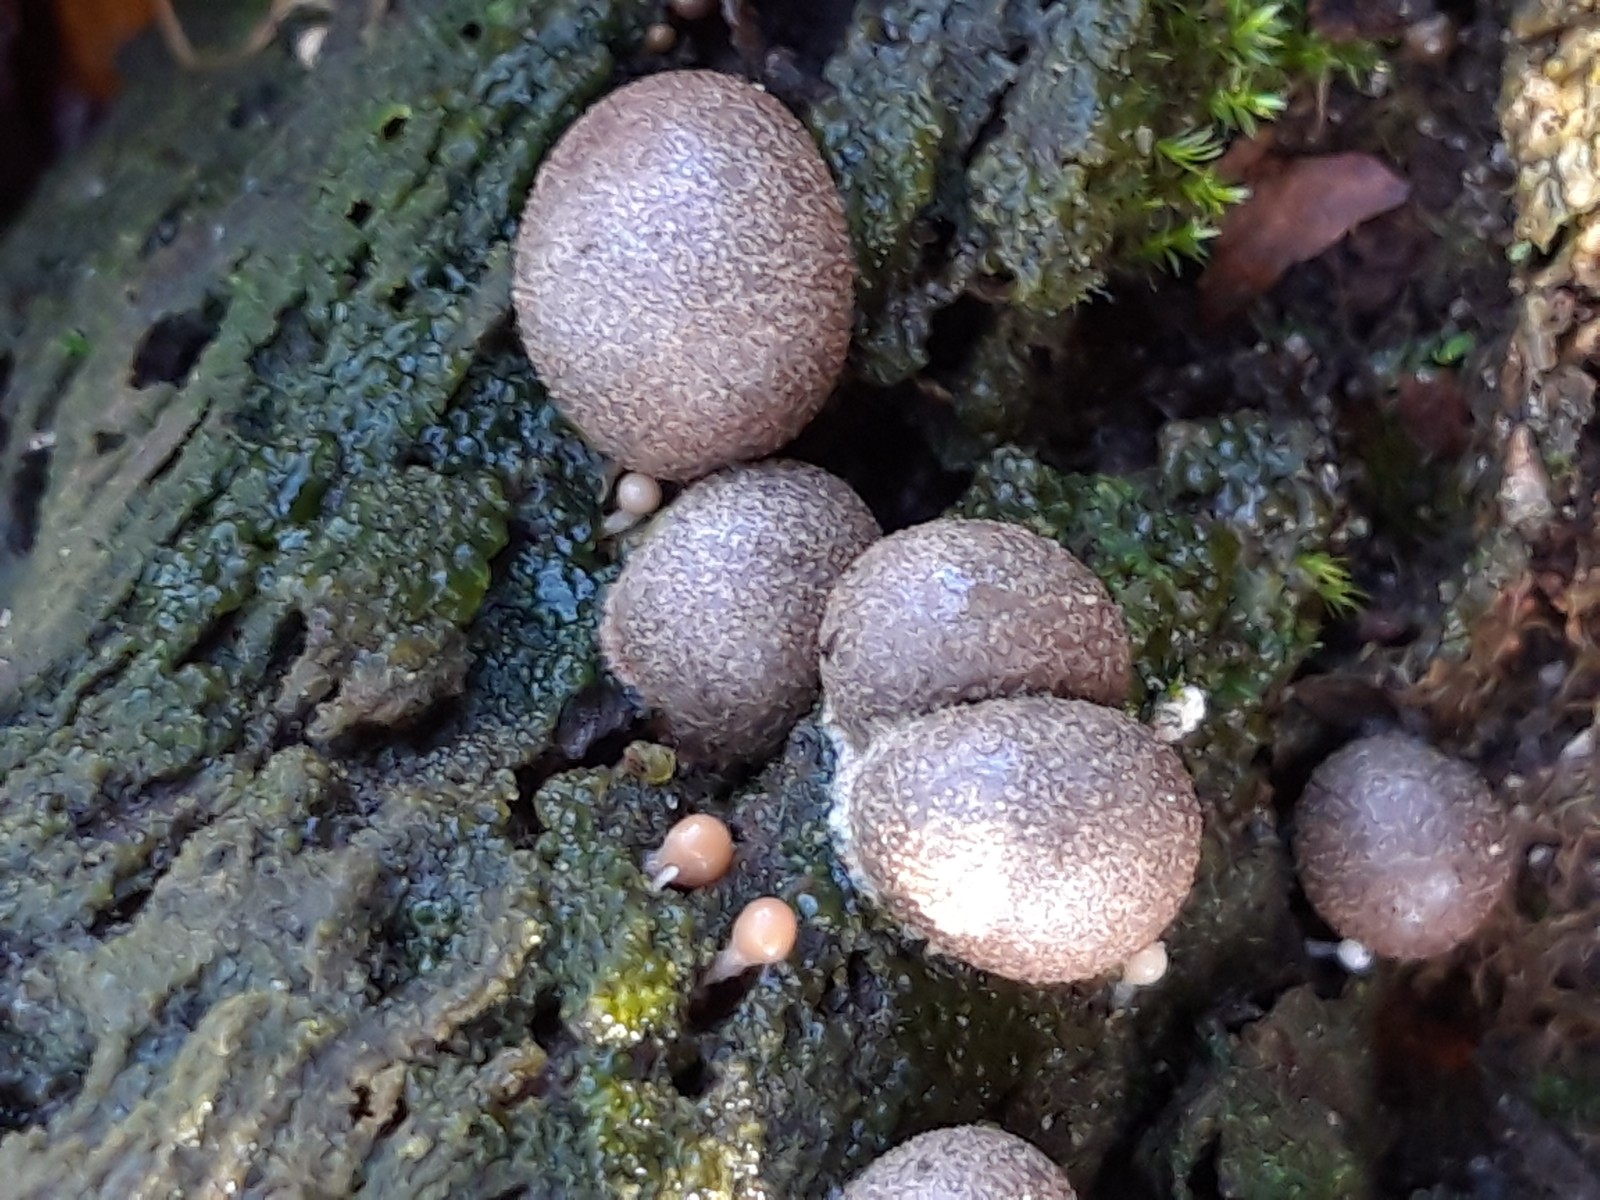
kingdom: Protozoa
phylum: Mycetozoa
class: Myxomycetes
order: Cribrariales
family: Tubiferaceae
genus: Lycogala
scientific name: Lycogala epidendrum
